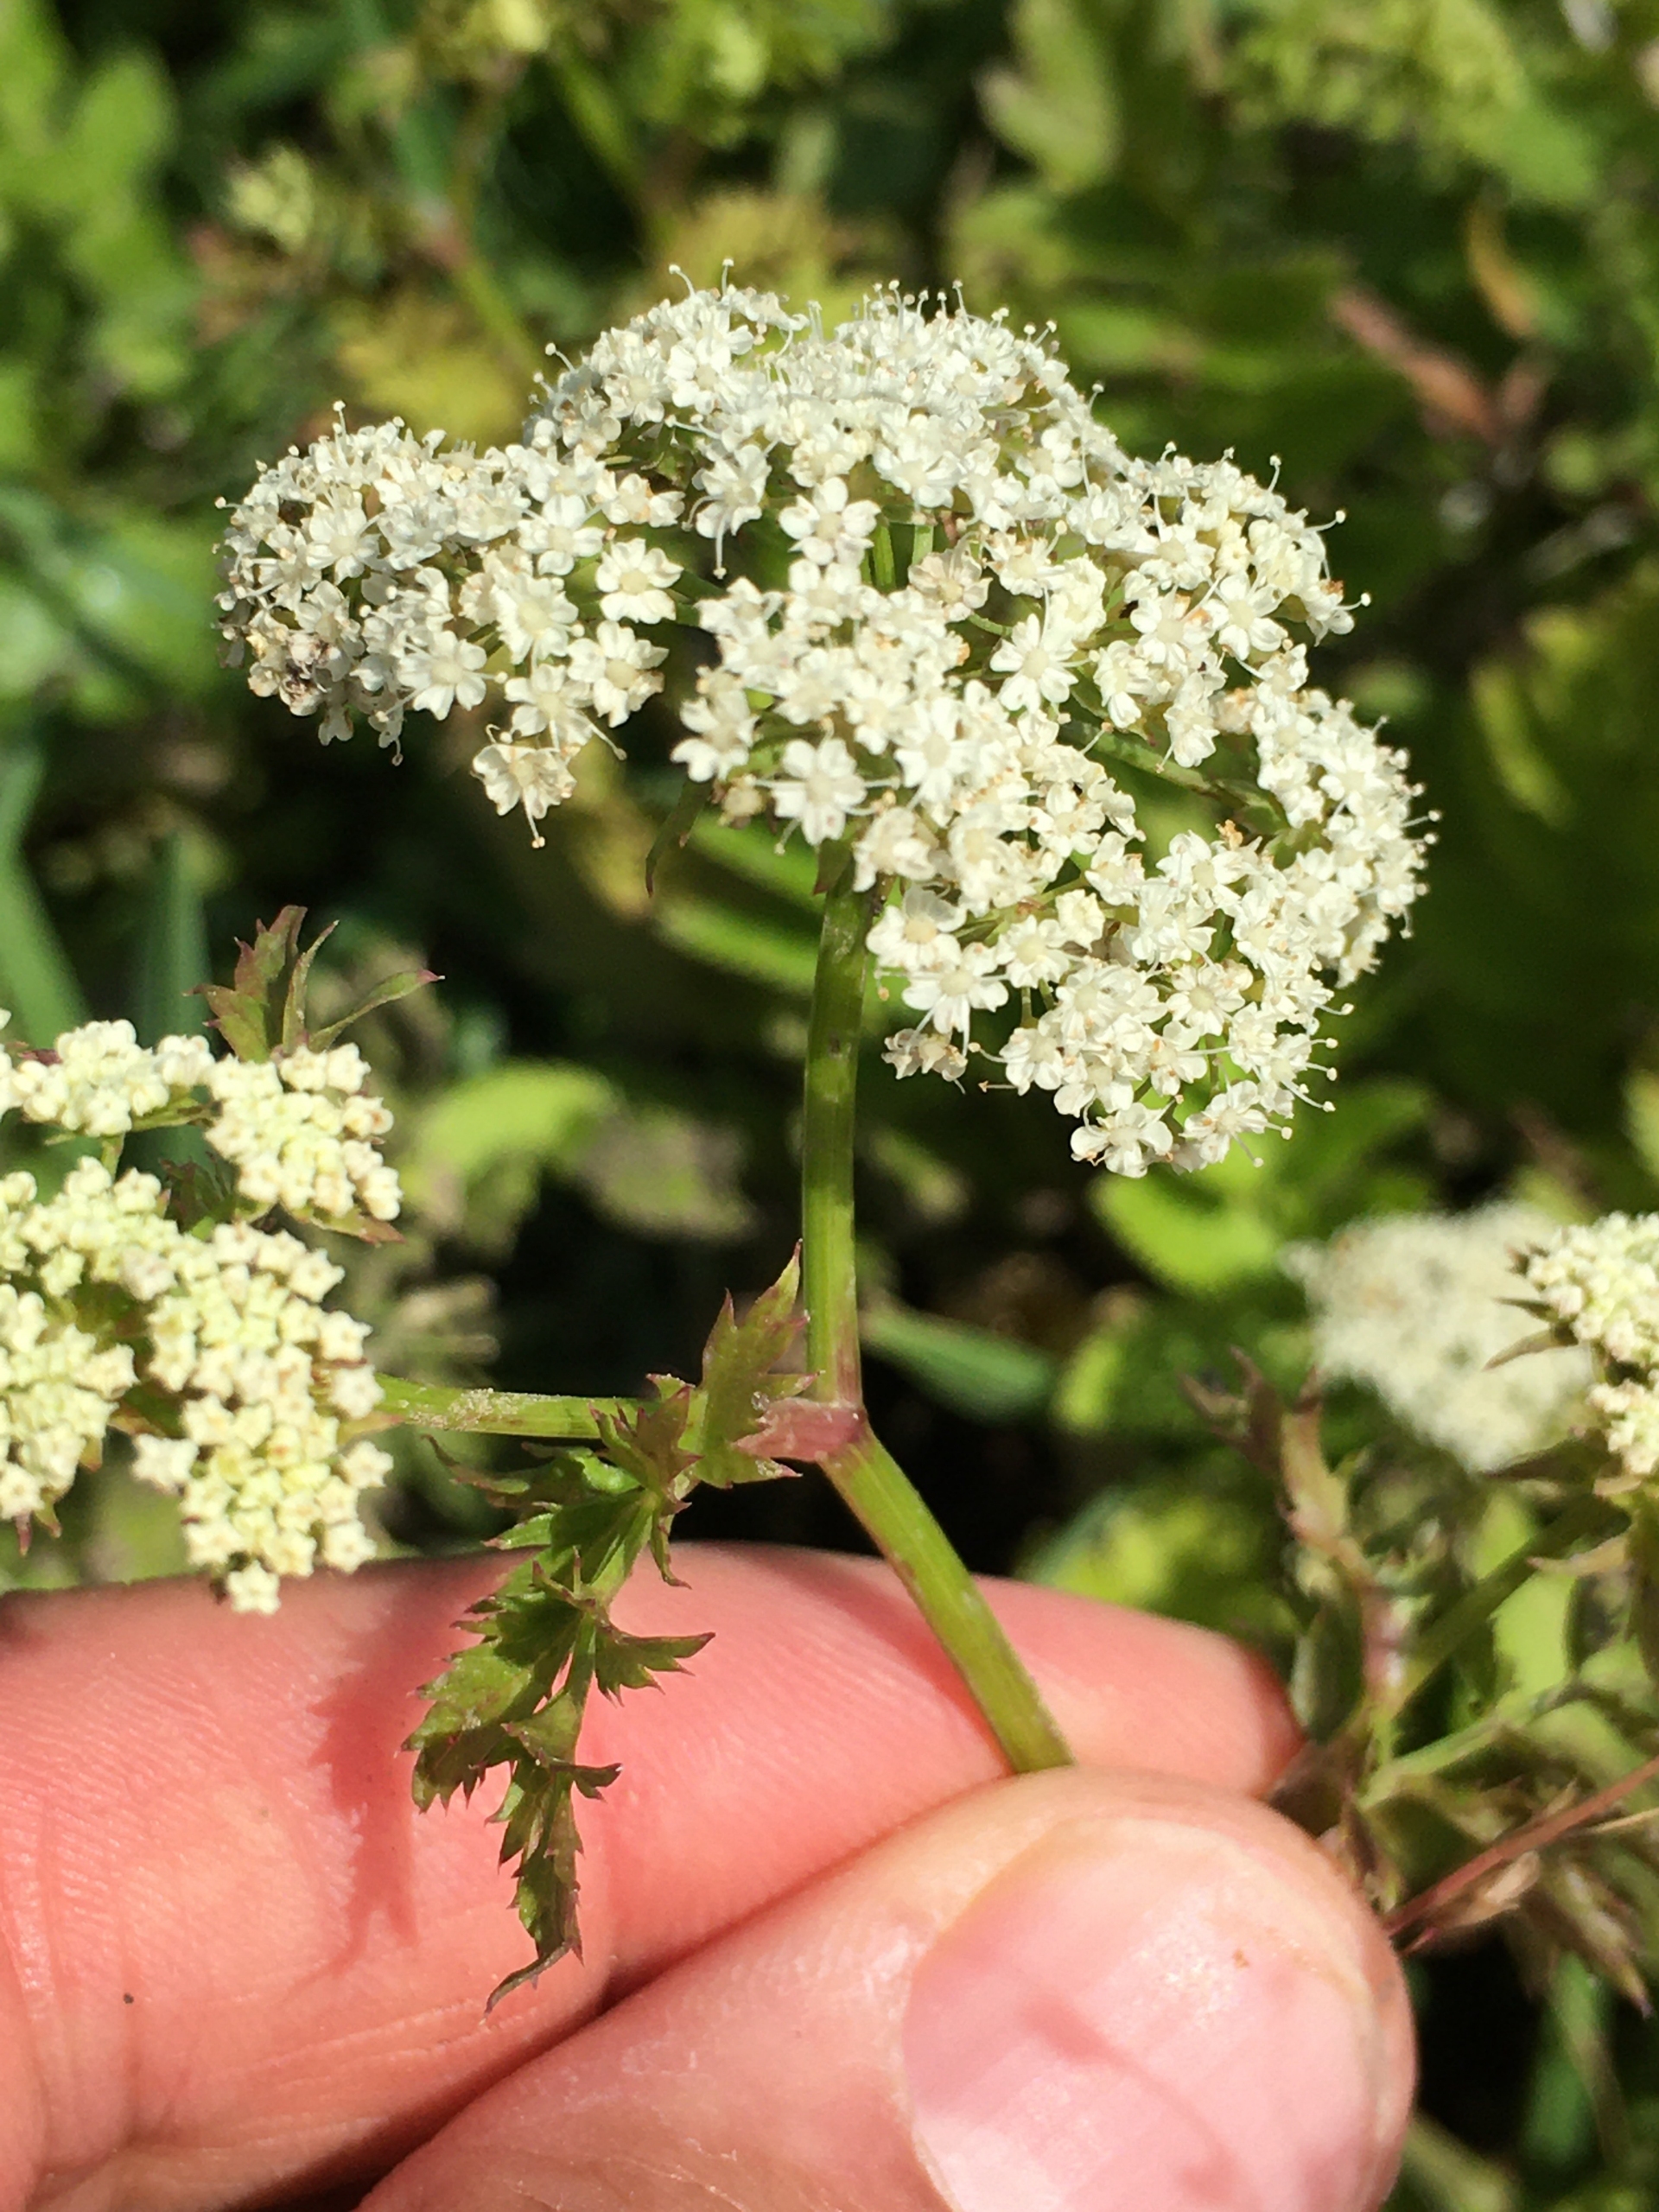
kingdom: Plantae
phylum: Tracheophyta
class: Magnoliopsida
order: Apiales
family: Apiaceae
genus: Berula
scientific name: Berula erecta
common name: Sideskærm
